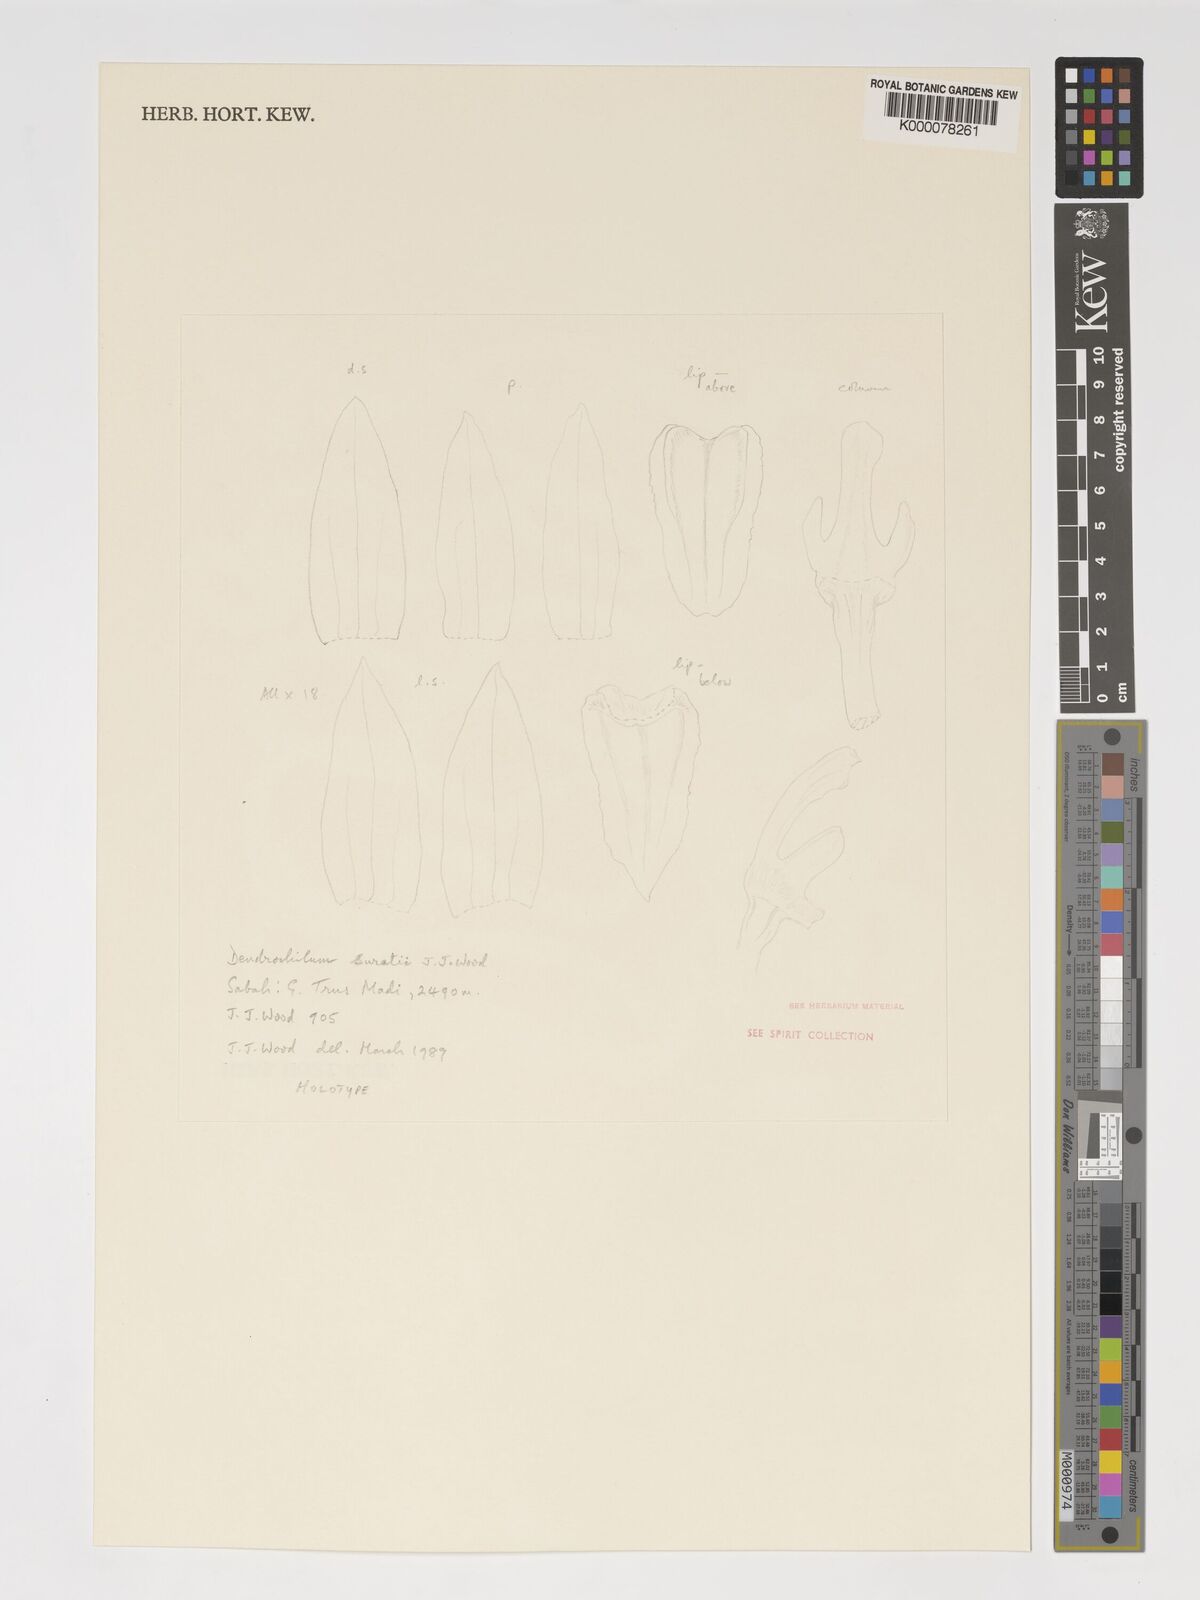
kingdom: Plantae
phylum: Tracheophyta
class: Liliopsida
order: Asparagales
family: Orchidaceae
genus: Coelogyne
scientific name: Coelogyne suratii
